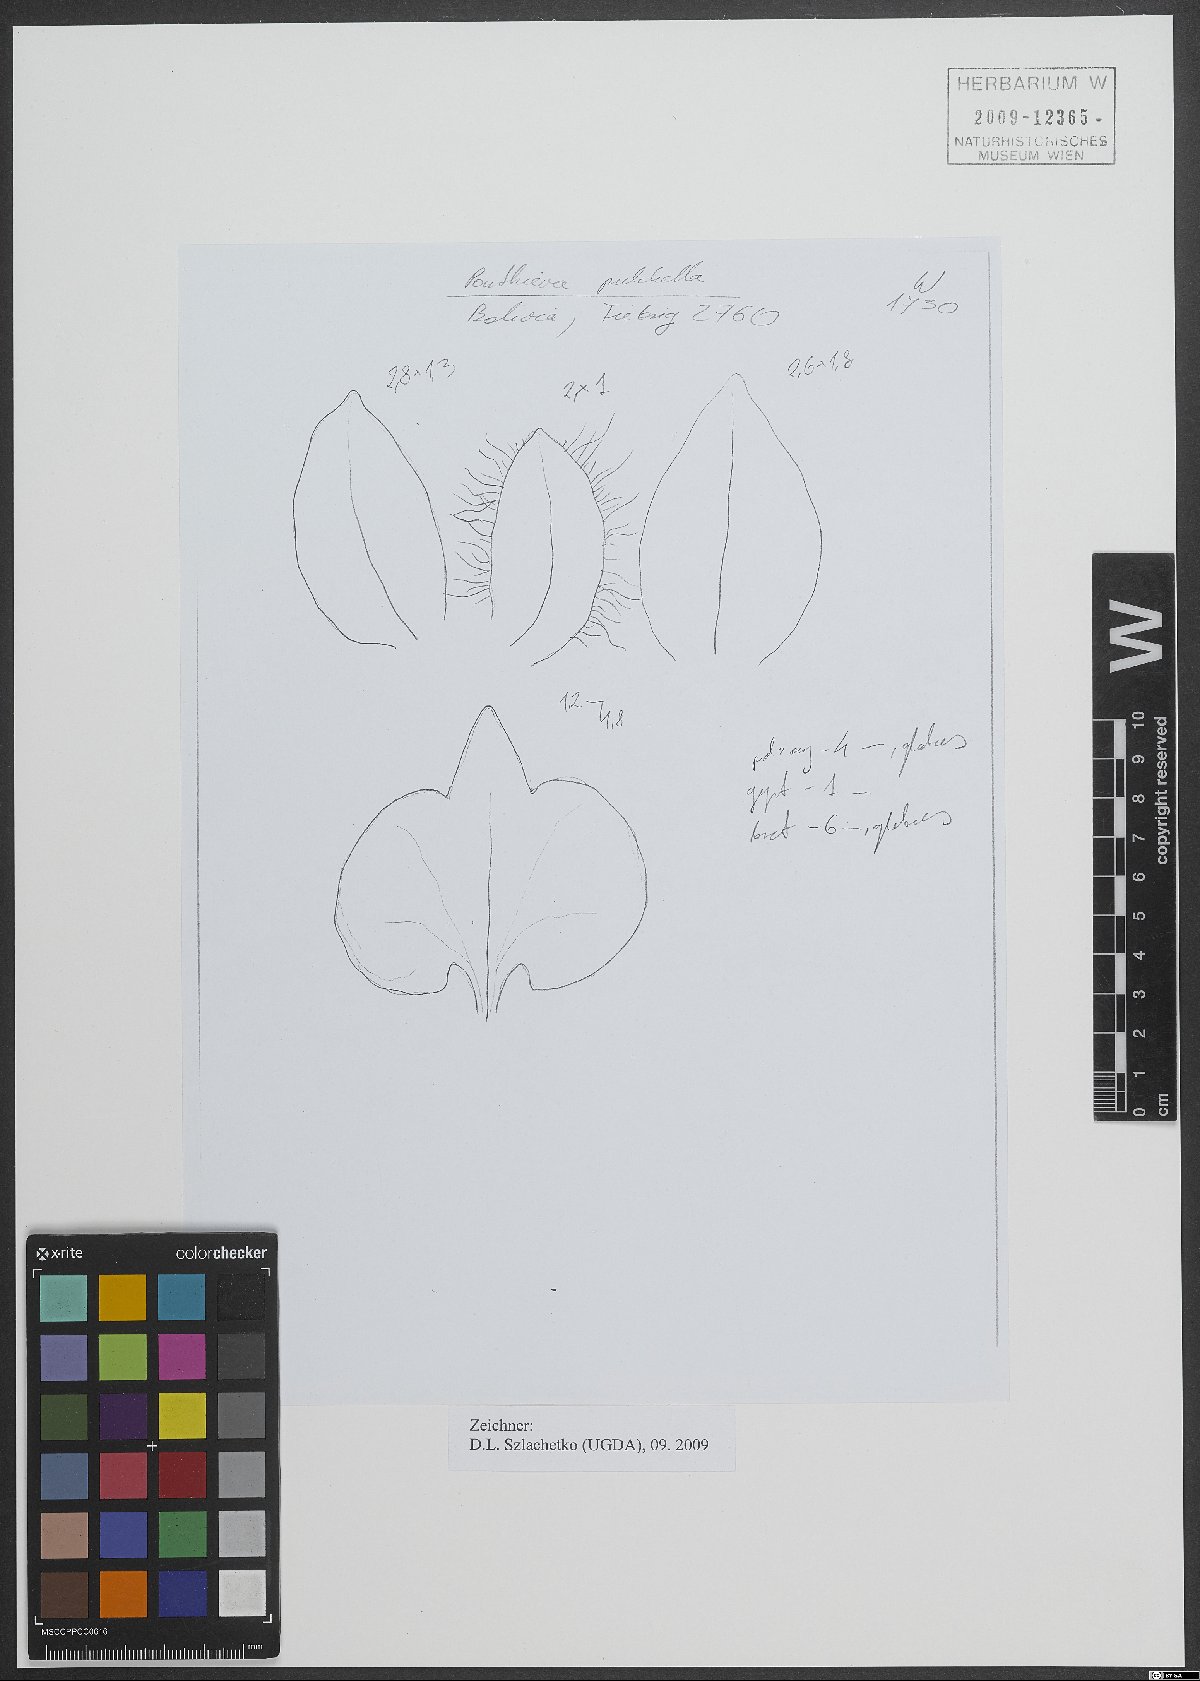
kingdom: Plantae
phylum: Tracheophyta
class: Liliopsida
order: Asparagales
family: Orchidaceae
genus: Ponthieva
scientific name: Ponthieva pulchella
